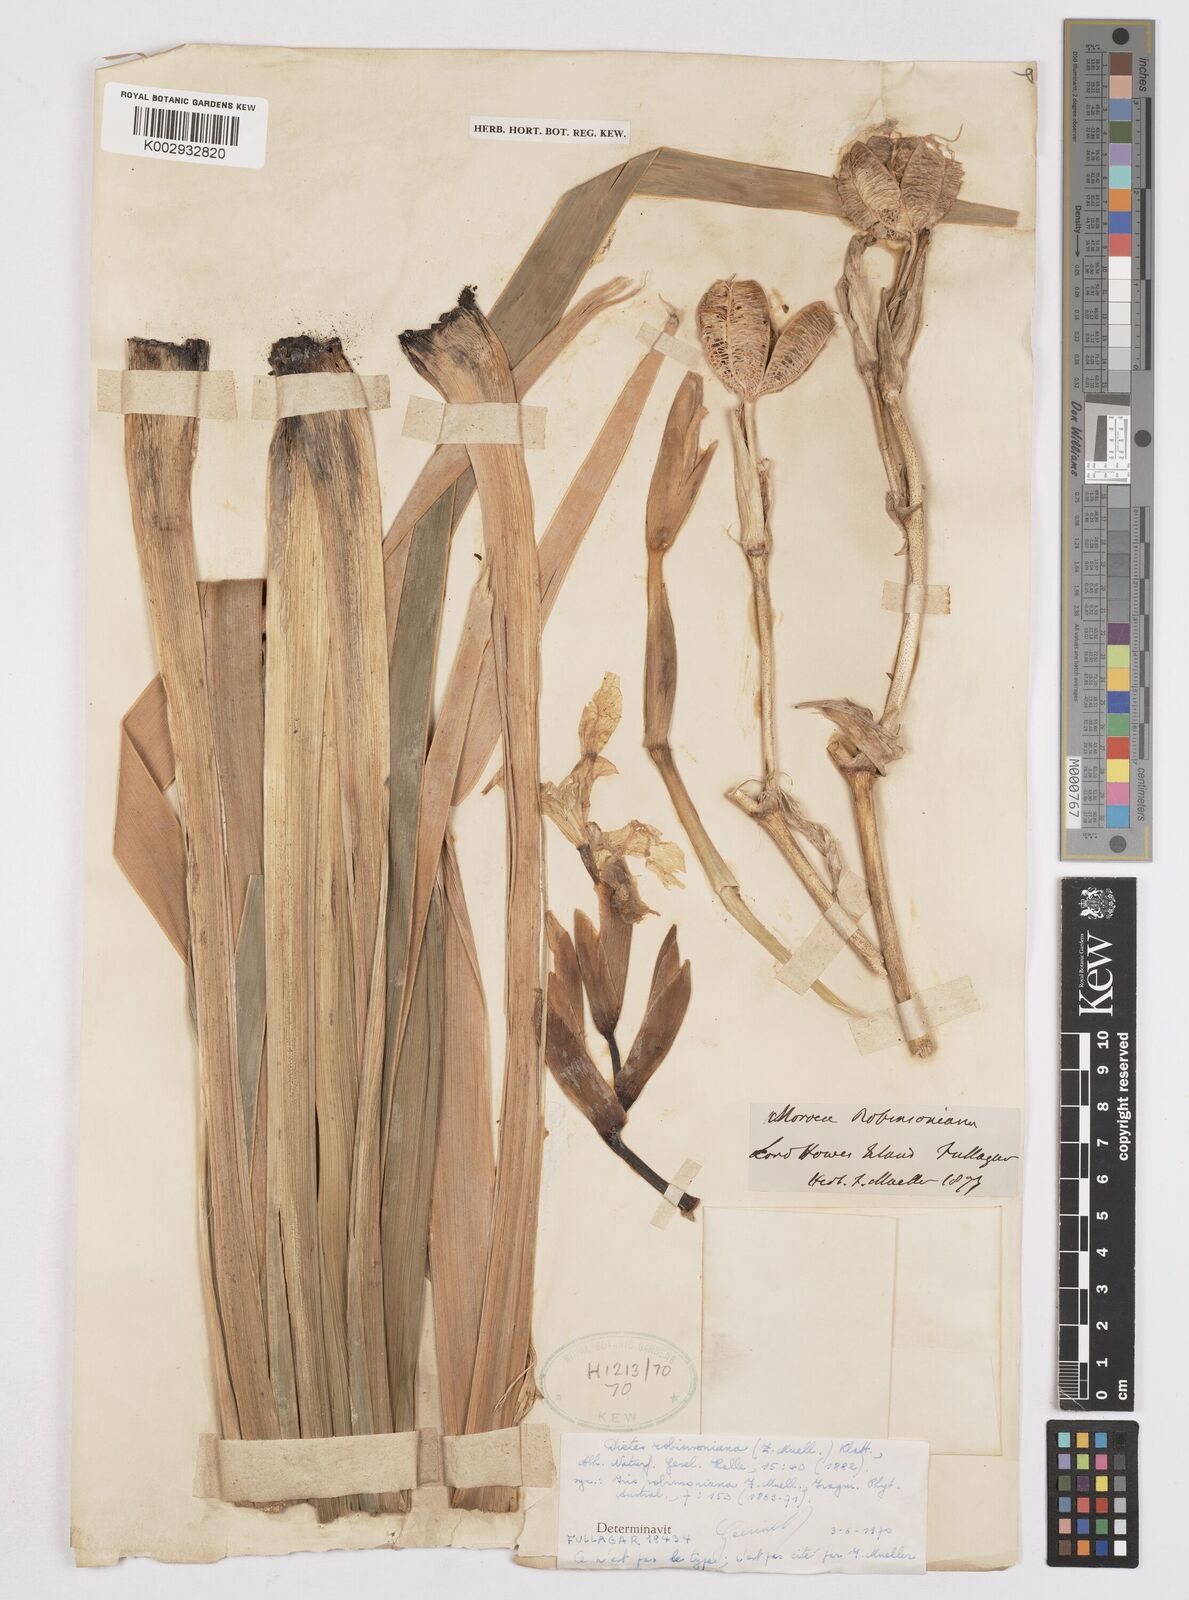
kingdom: Plantae
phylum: Tracheophyta
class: Liliopsida
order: Asparagales
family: Iridaceae
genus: Dietes
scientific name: Dietes robinsoniana
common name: Wedding-lily
